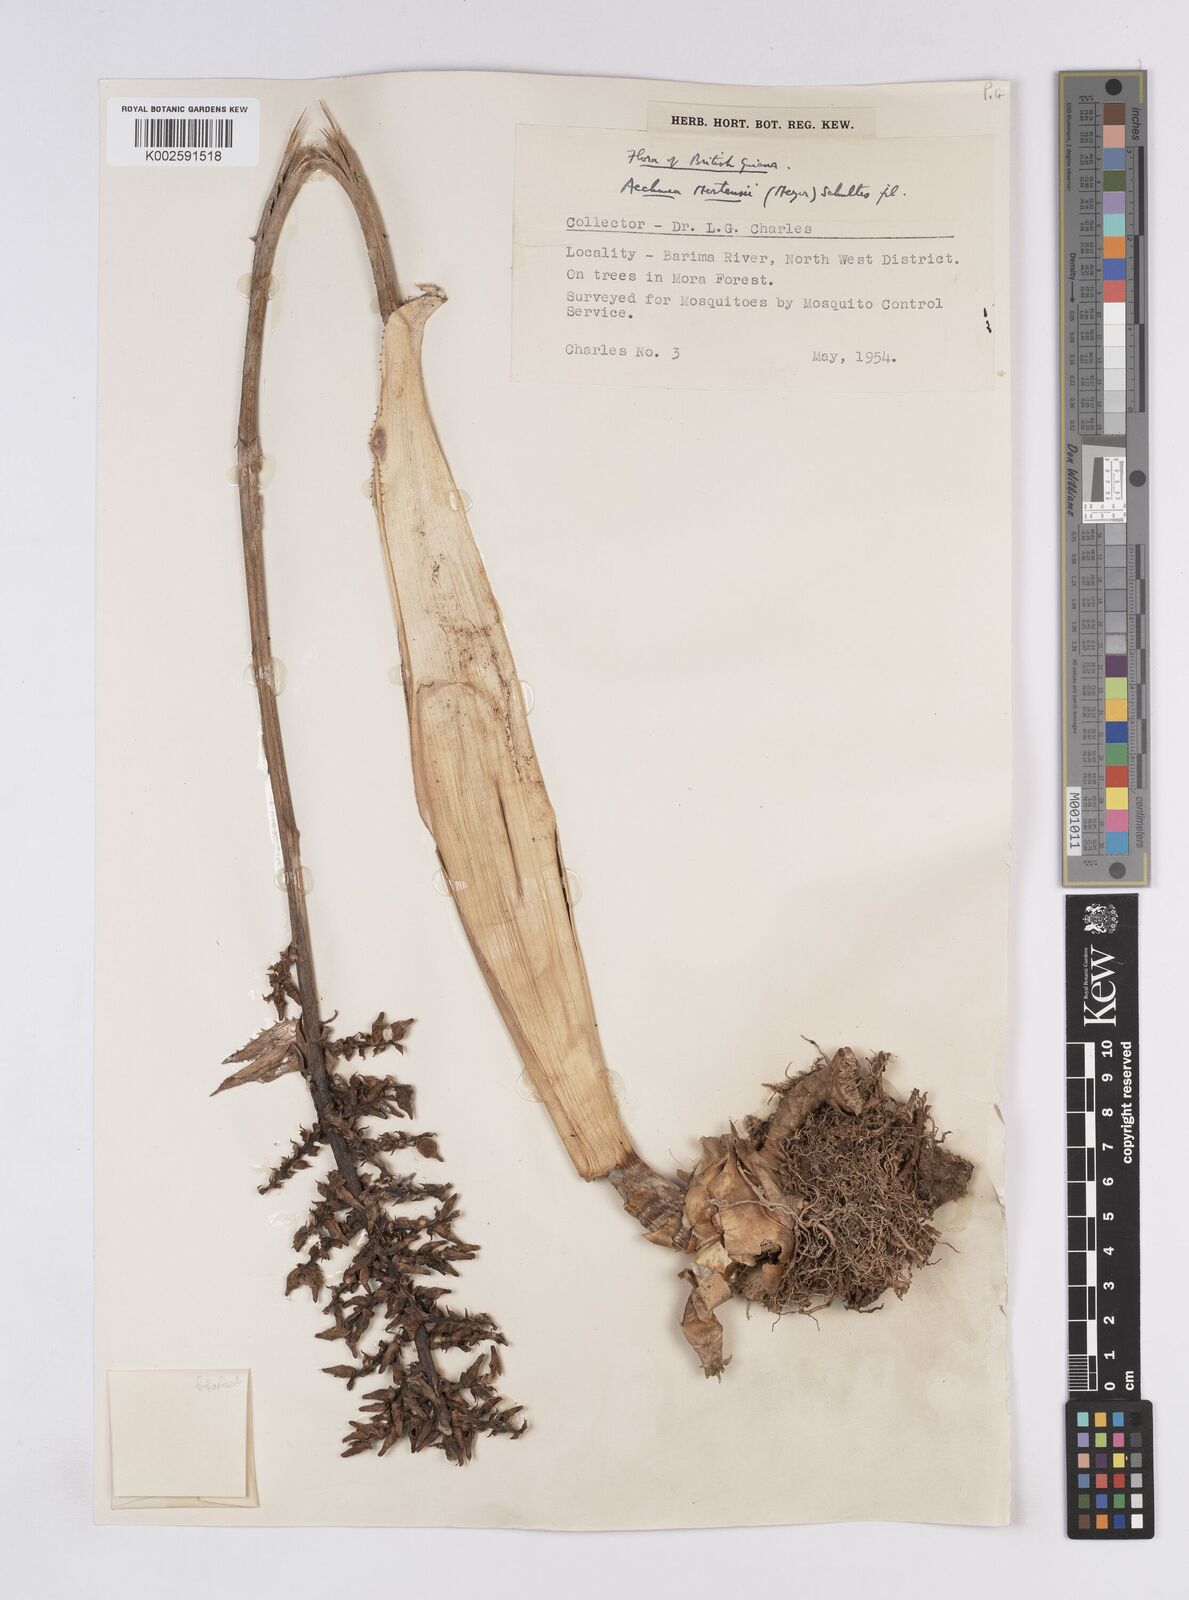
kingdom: Plantae
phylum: Tracheophyta
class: Liliopsida
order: Poales
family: Bromeliaceae
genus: Aechmea
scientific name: Aechmea mertensii
